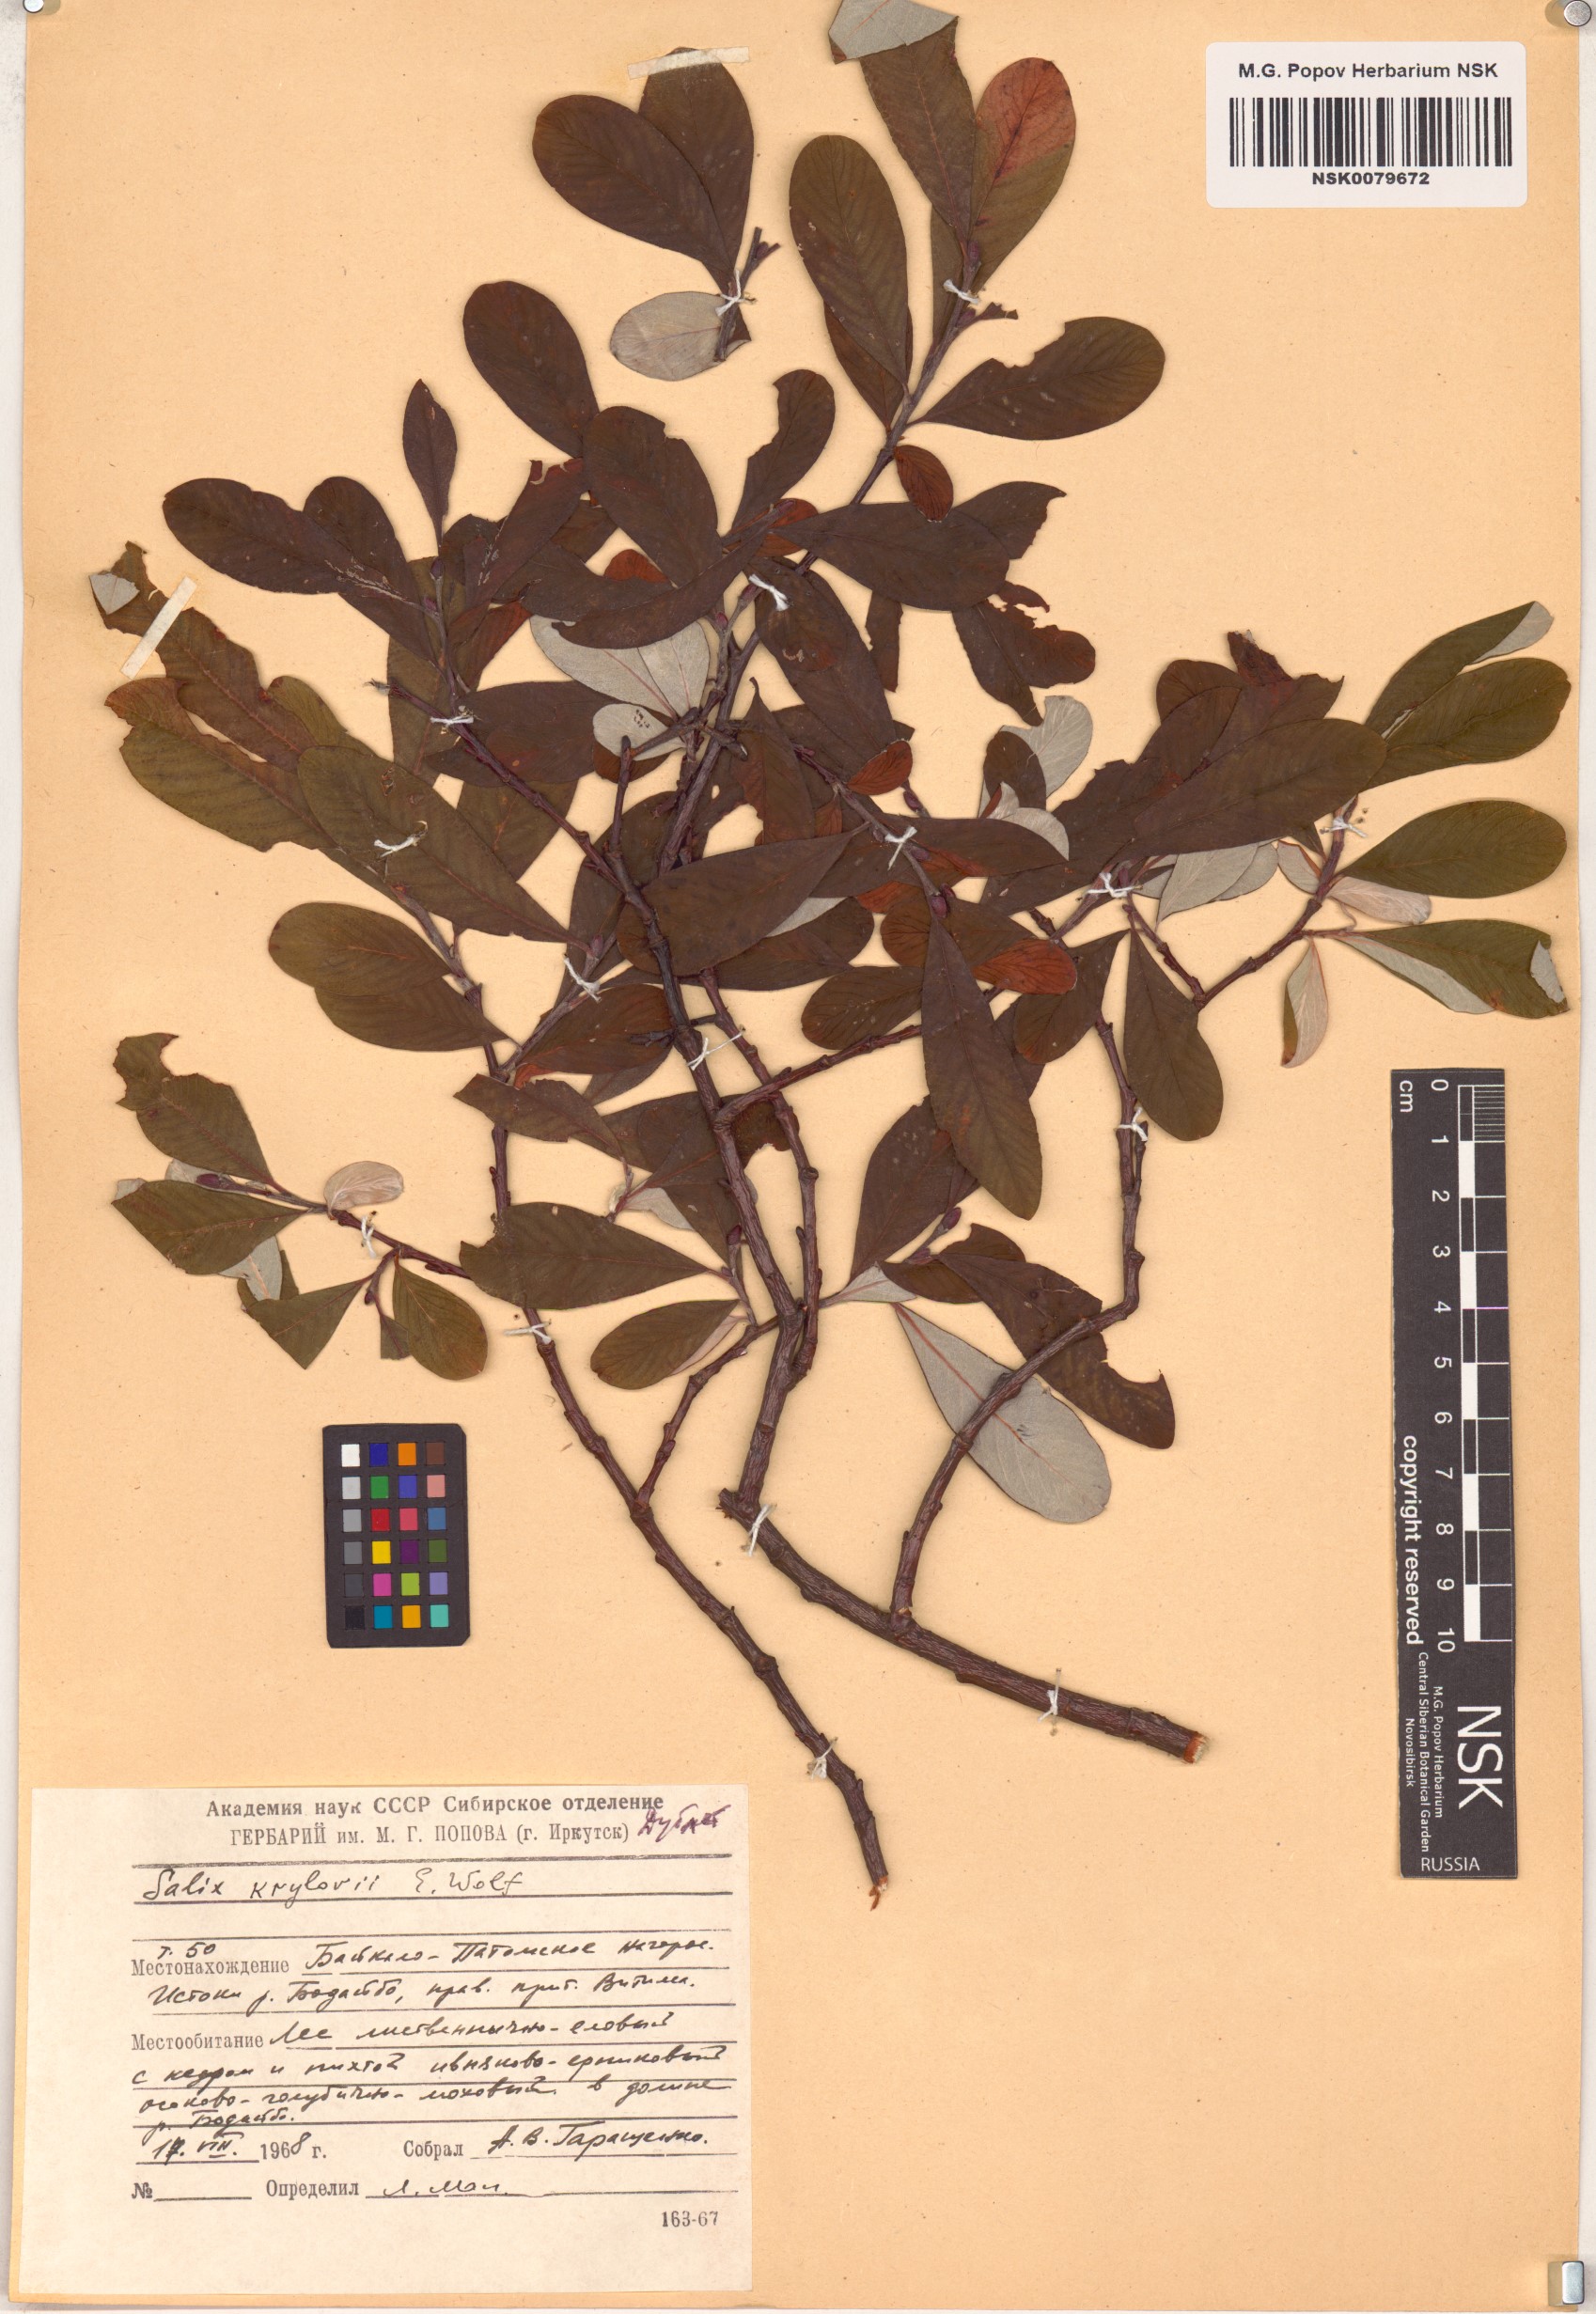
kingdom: Plantae
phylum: Tracheophyta
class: Magnoliopsida
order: Malpighiales
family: Salicaceae
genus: Salix
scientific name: Salix krylovii
